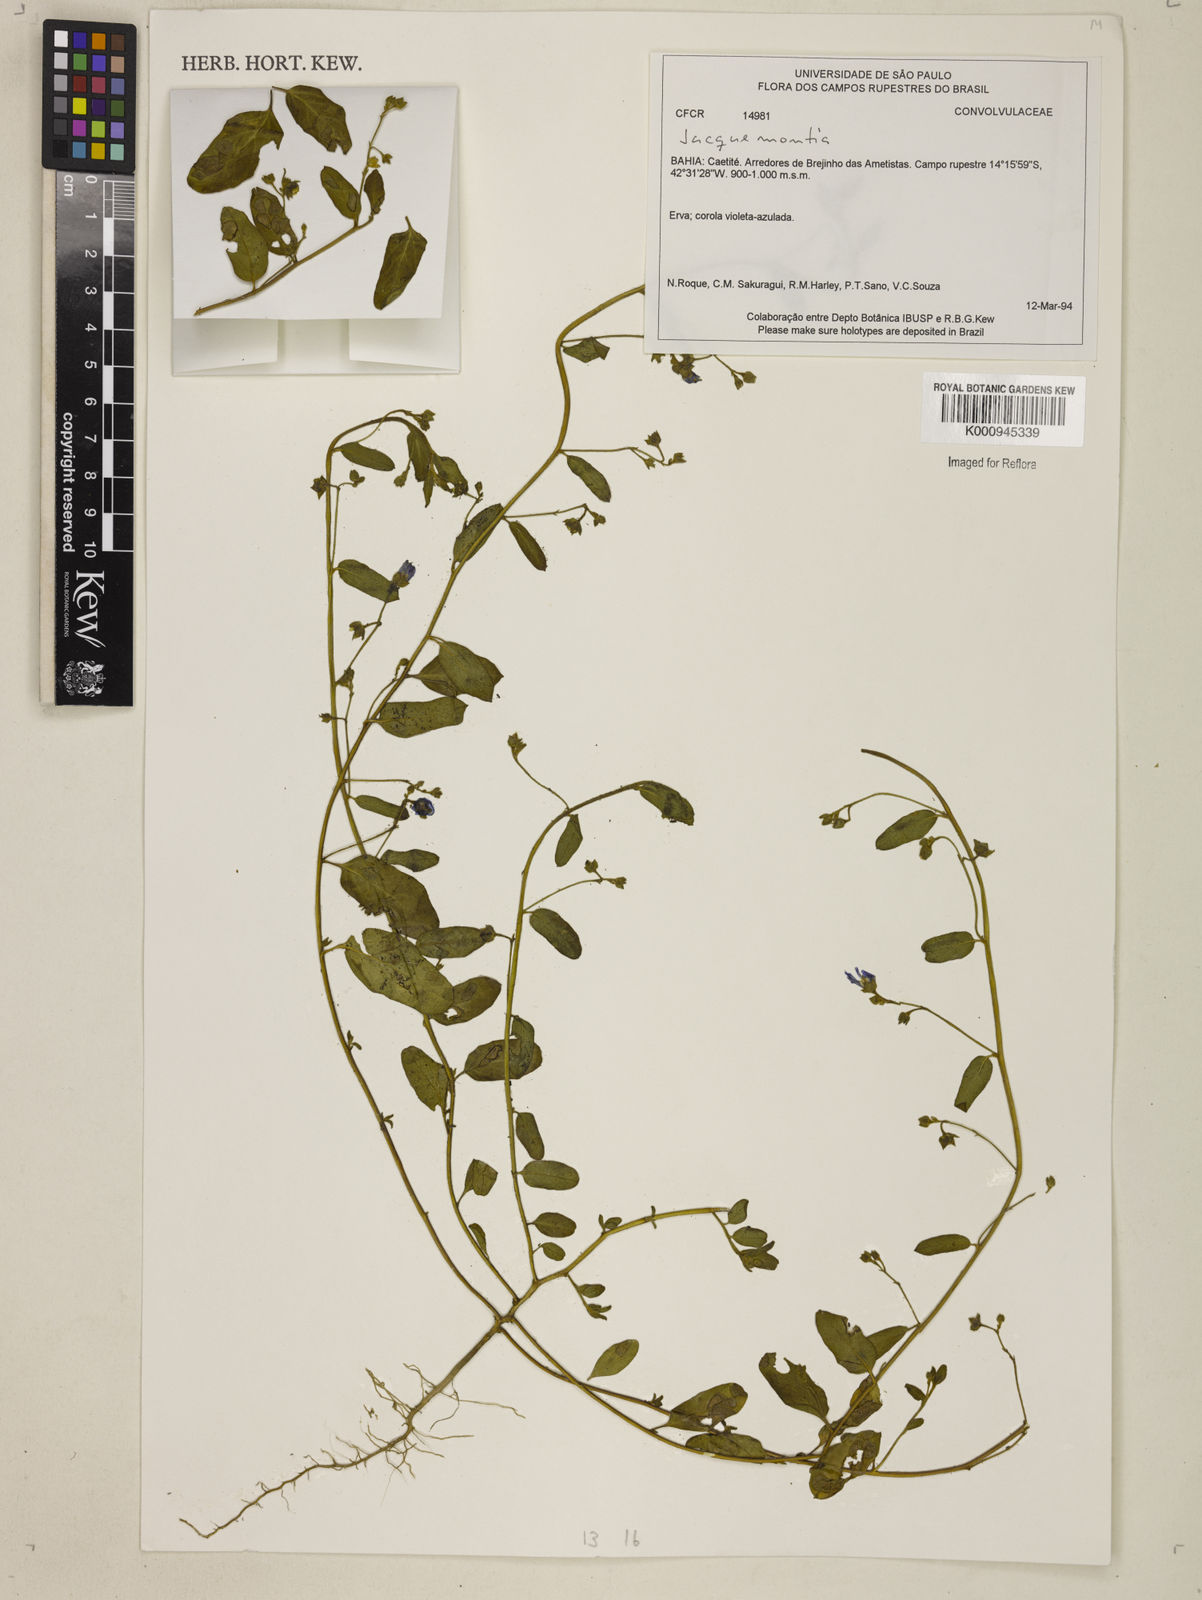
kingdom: Plantae
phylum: Tracheophyta
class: Magnoliopsida
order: Solanales
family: Convolvulaceae
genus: Jacquemontia
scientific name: Jacquemontia
